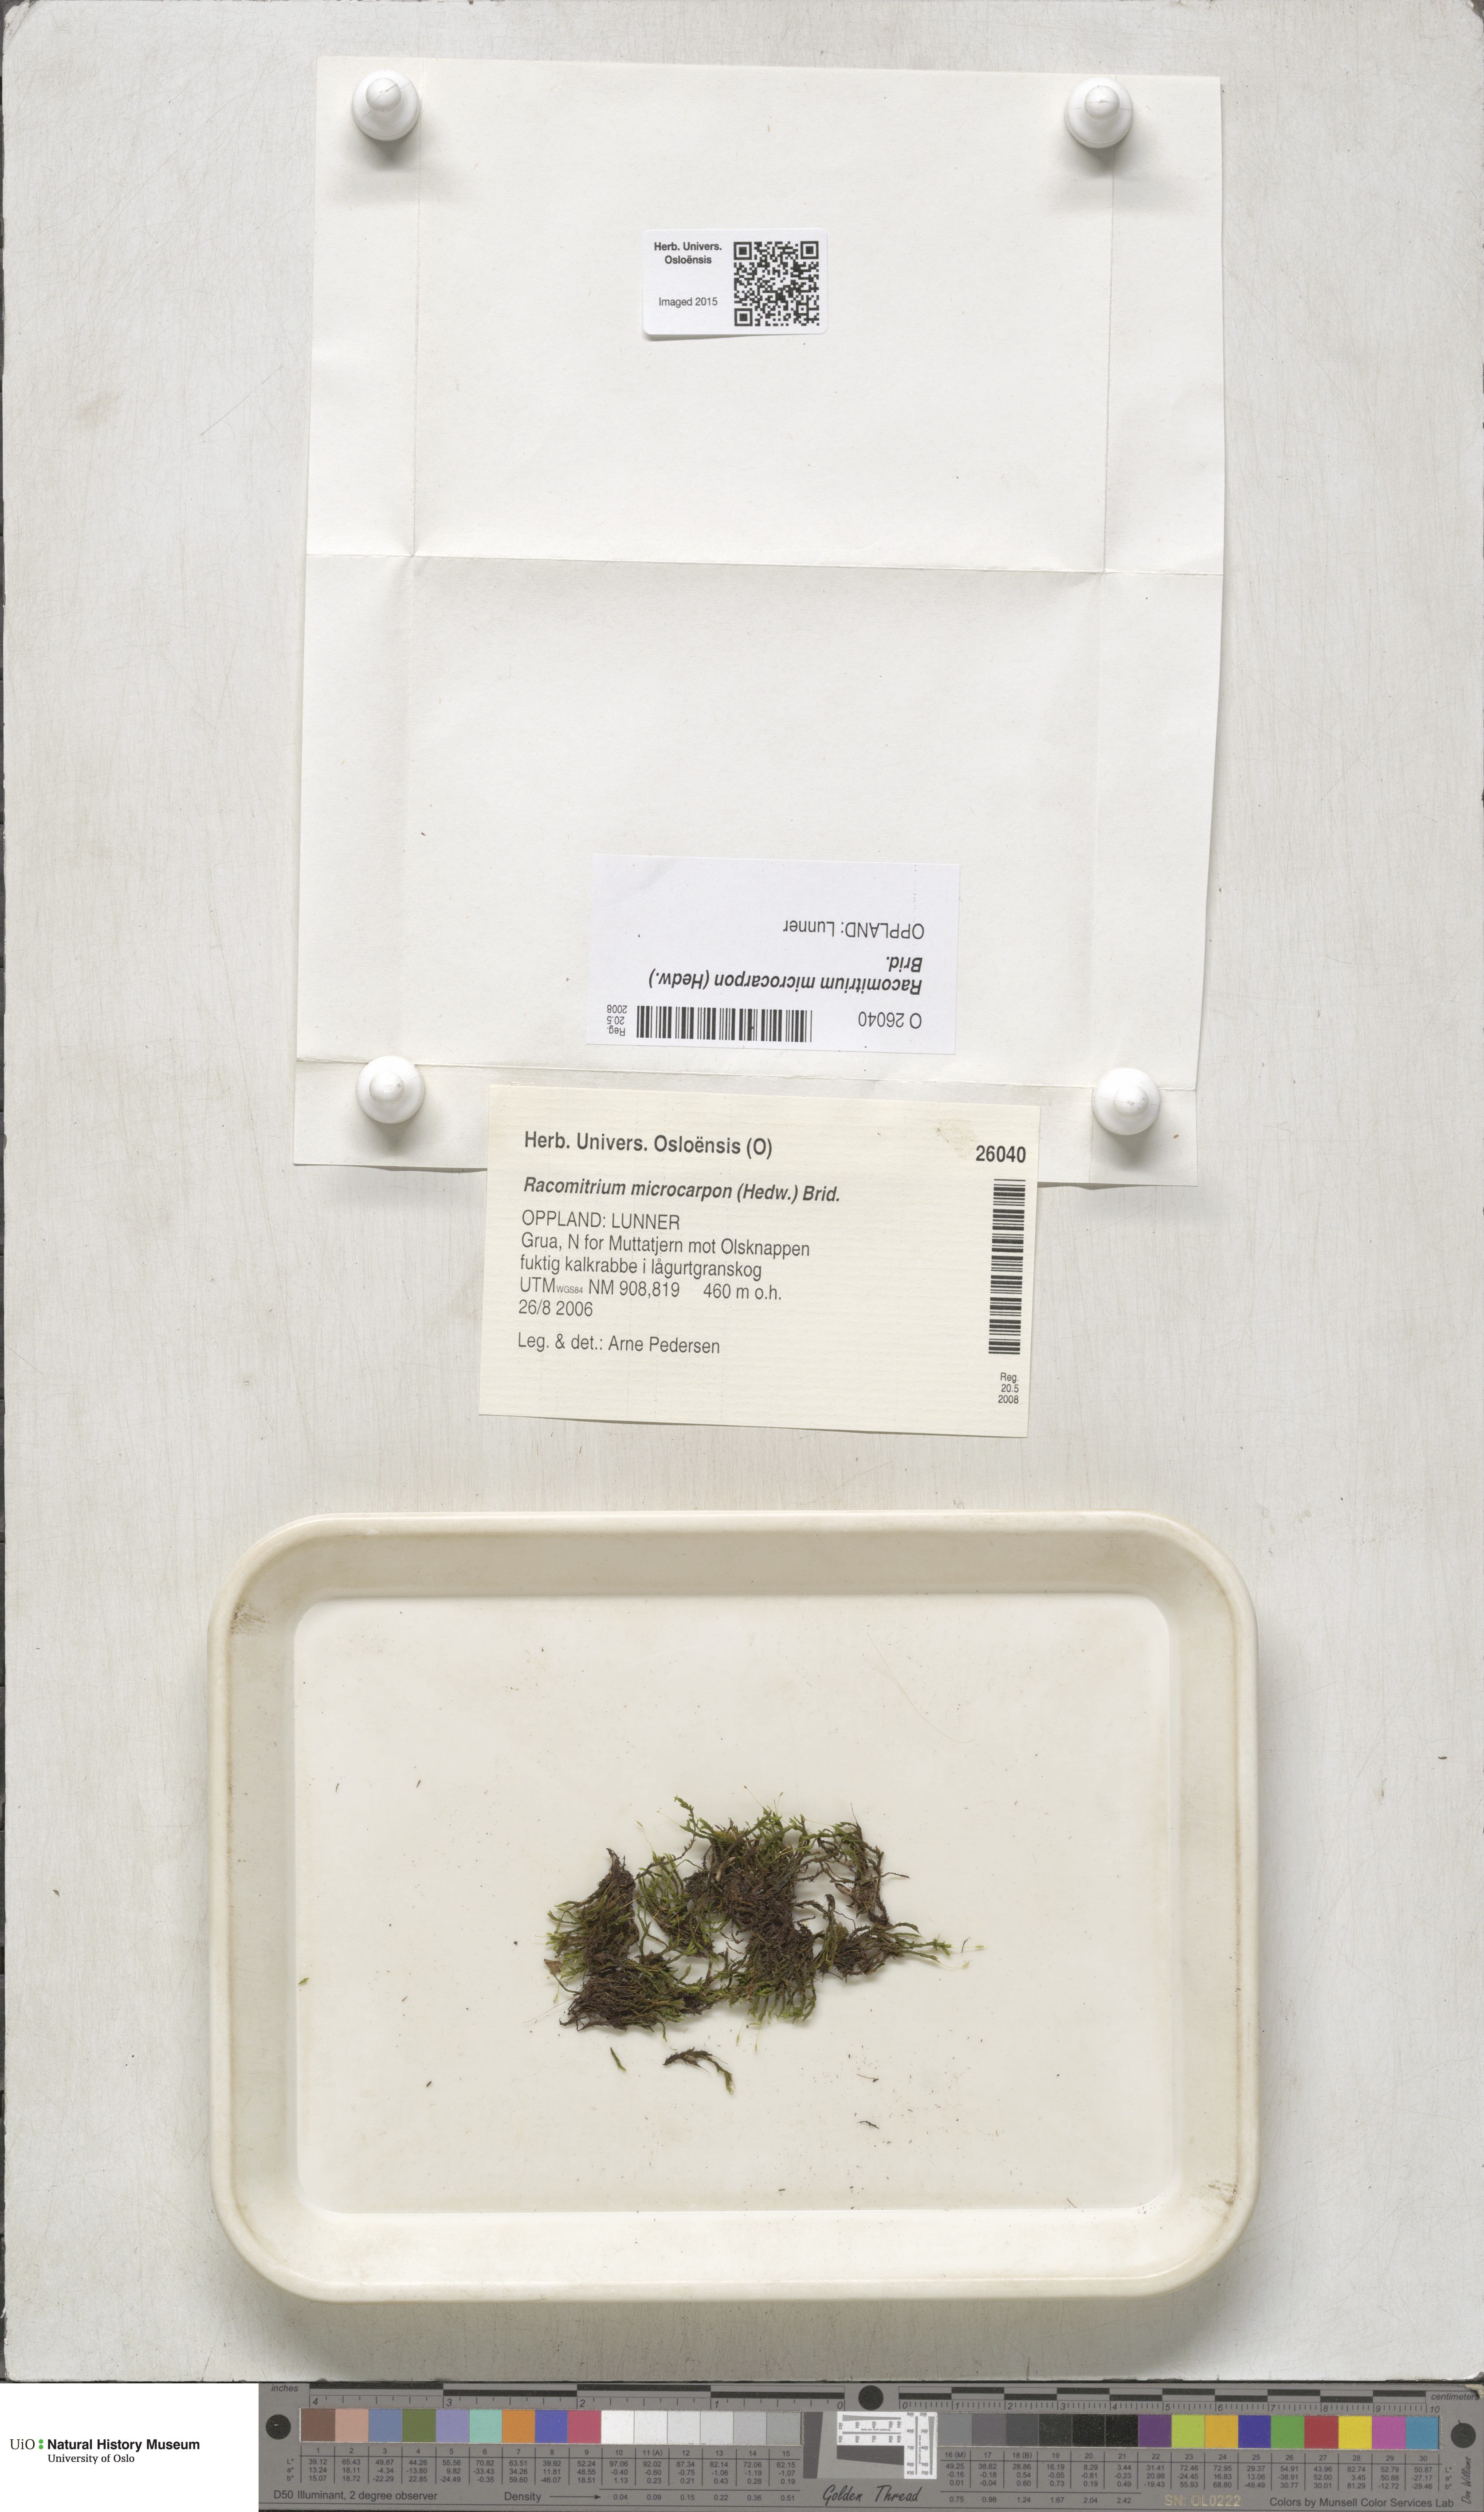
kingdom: Plantae
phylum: Bryophyta
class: Bryopsida
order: Grimmiales
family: Grimmiaceae
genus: Bucklandiella
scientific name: Bucklandiella microcarpos
